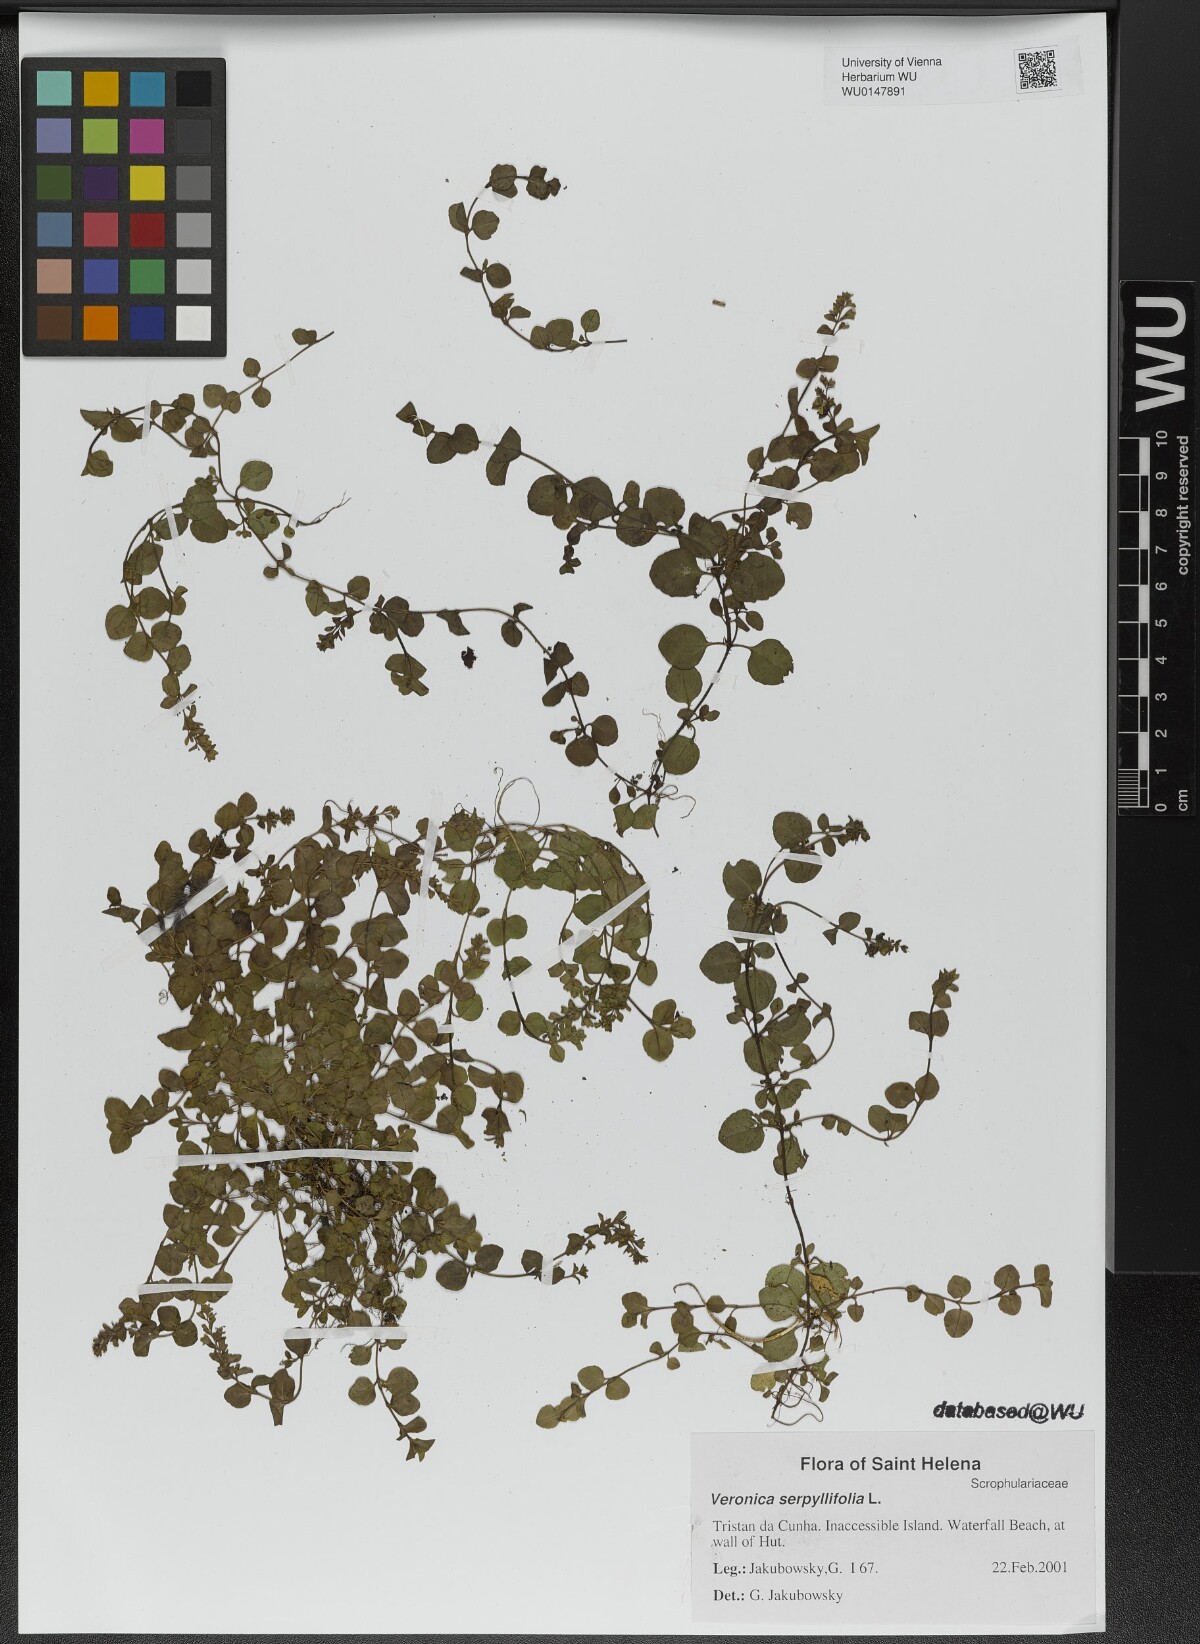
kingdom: Plantae
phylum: Tracheophyta
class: Magnoliopsida
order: Lamiales
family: Plantaginaceae
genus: Veronica
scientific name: Veronica serpyllifolia
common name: Thyme-leaved speedwell
